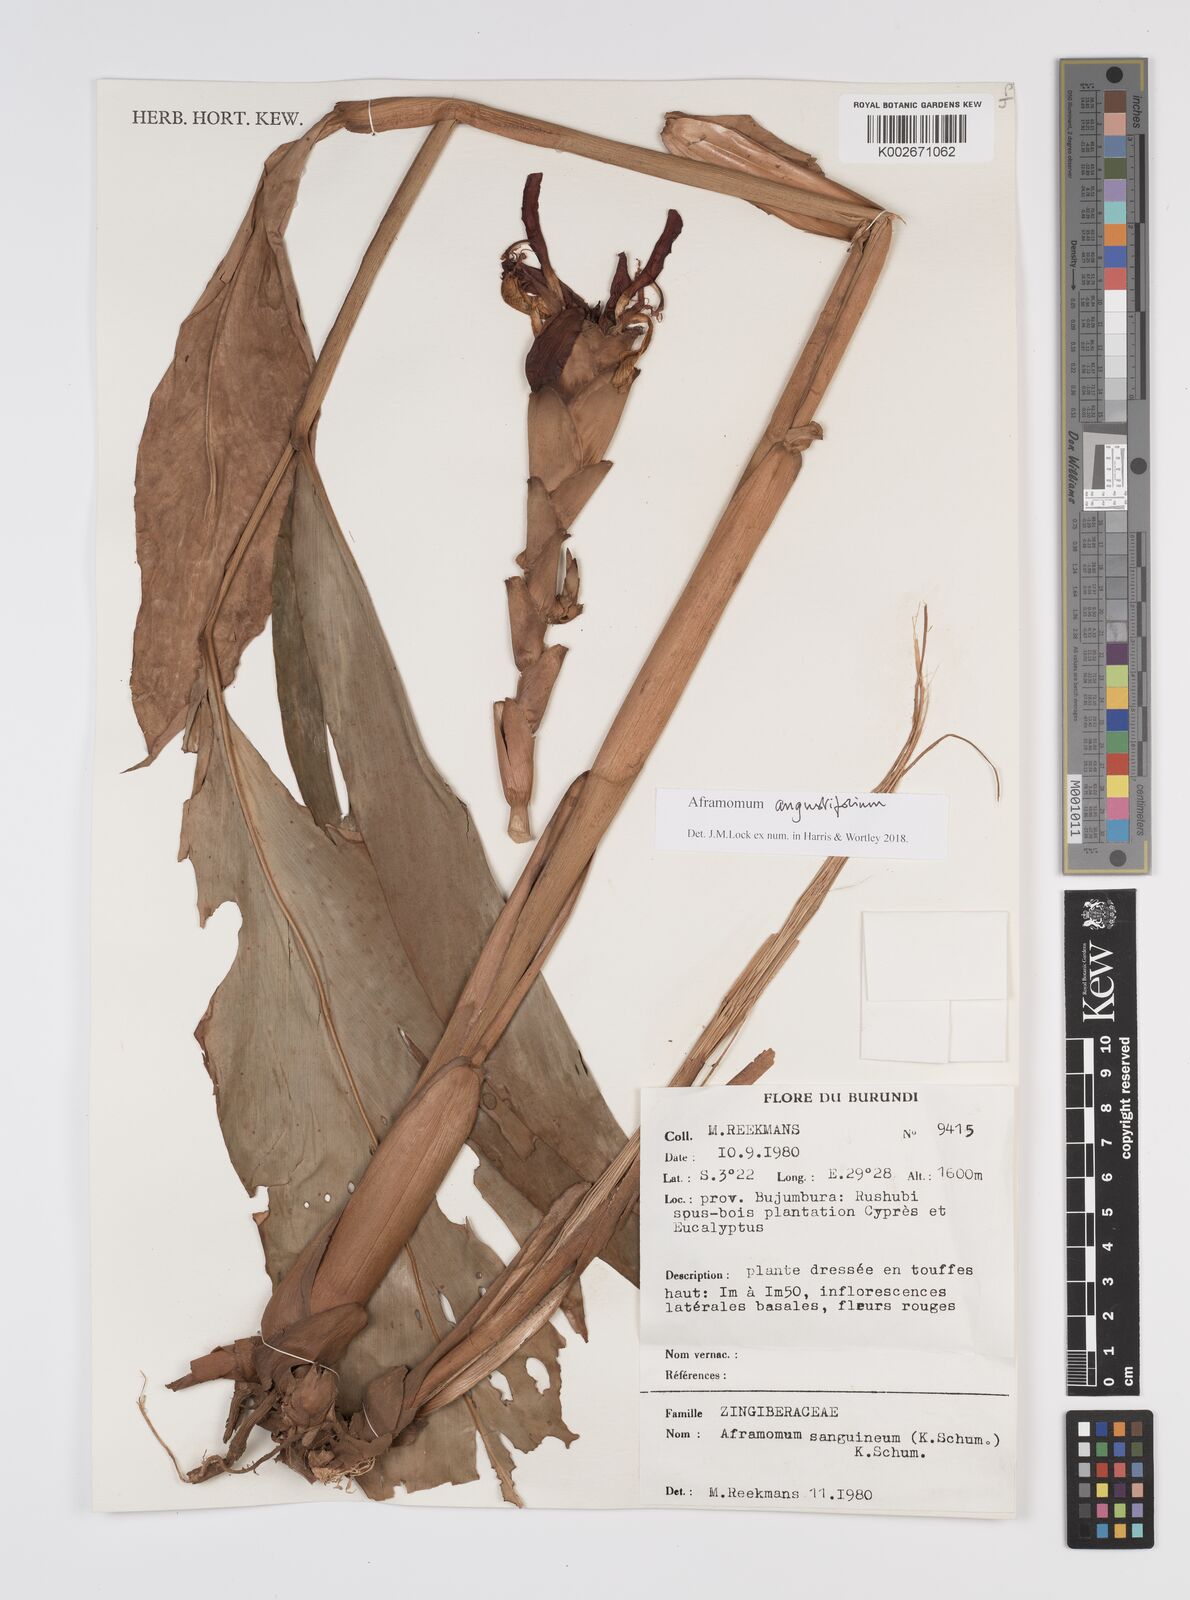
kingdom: Plantae
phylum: Tracheophyta
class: Liliopsida
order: Zingiberales
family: Zingiberaceae
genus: Aframomum
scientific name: Aframomum angustifolium
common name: Guinea grains
